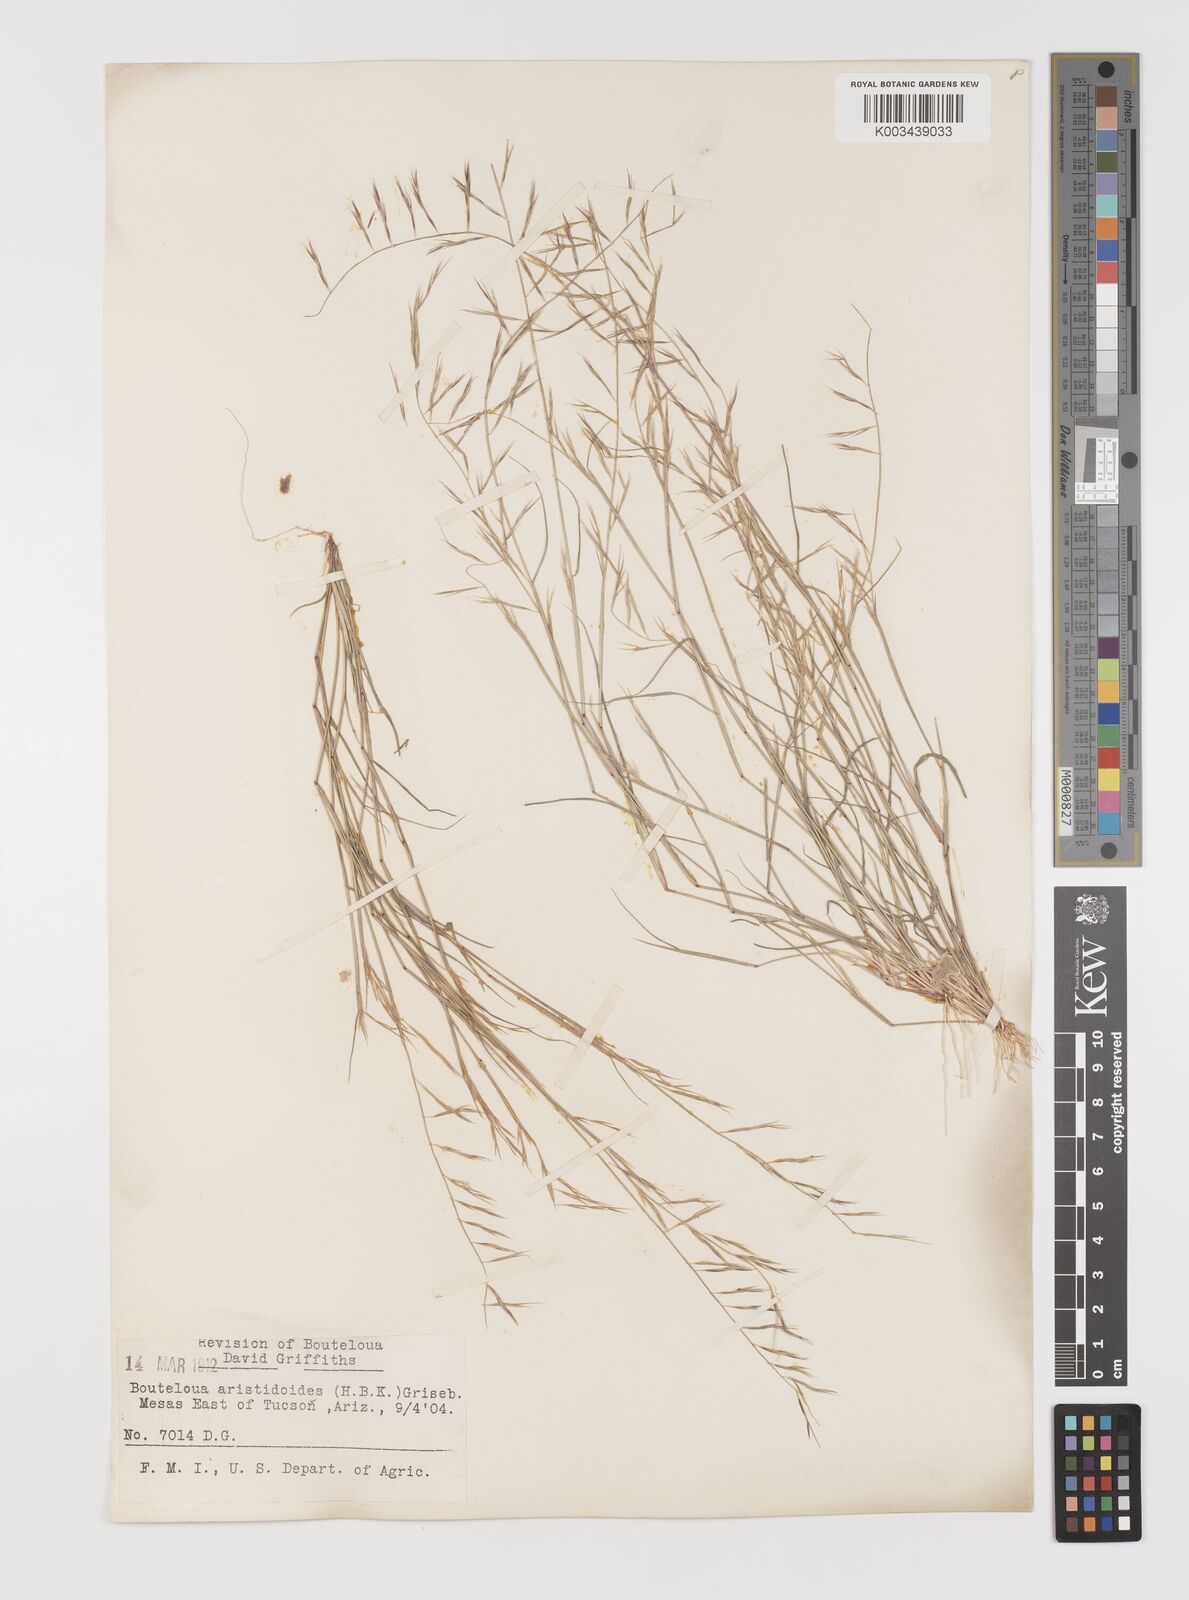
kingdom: Plantae
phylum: Tracheophyta
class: Liliopsida
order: Poales
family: Poaceae
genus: Bouteloua
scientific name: Bouteloua aristidoides
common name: Needle grama
